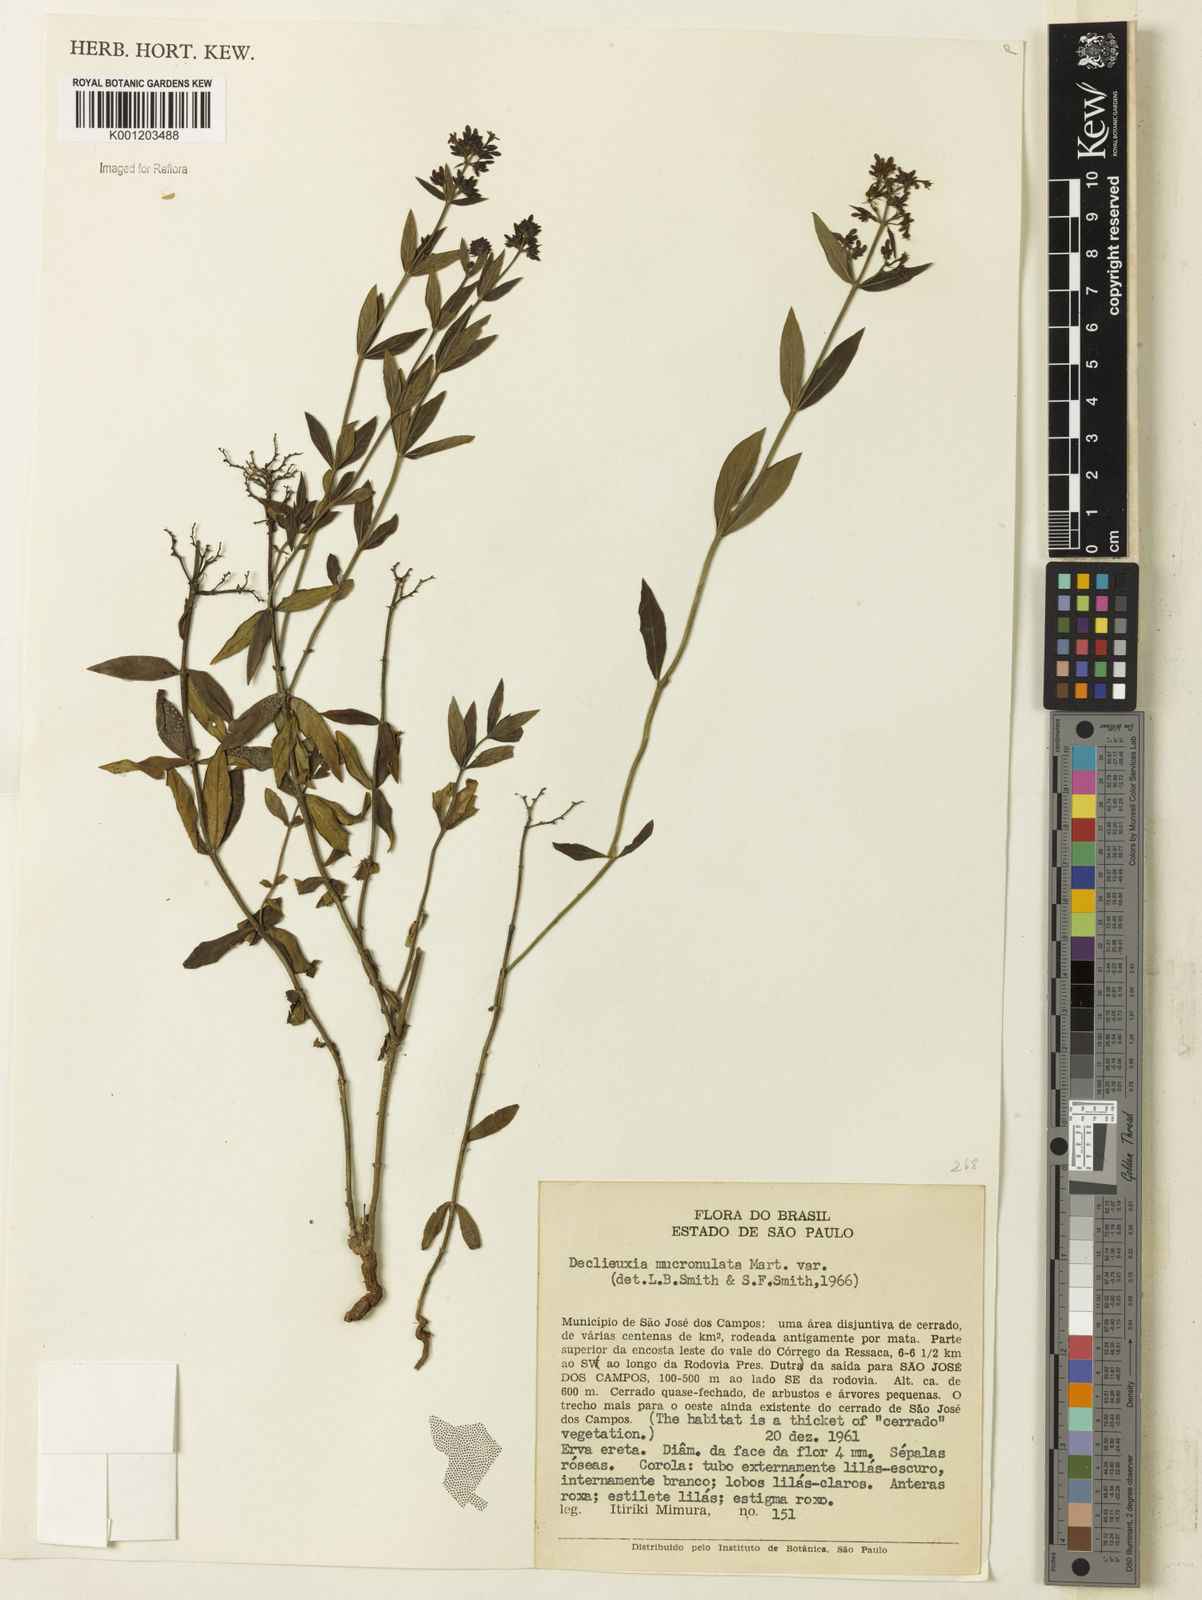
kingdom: Plantae
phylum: Tracheophyta
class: Magnoliopsida
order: Gentianales
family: Rubiaceae
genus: Declieuxia
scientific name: Declieuxia fruticosa
